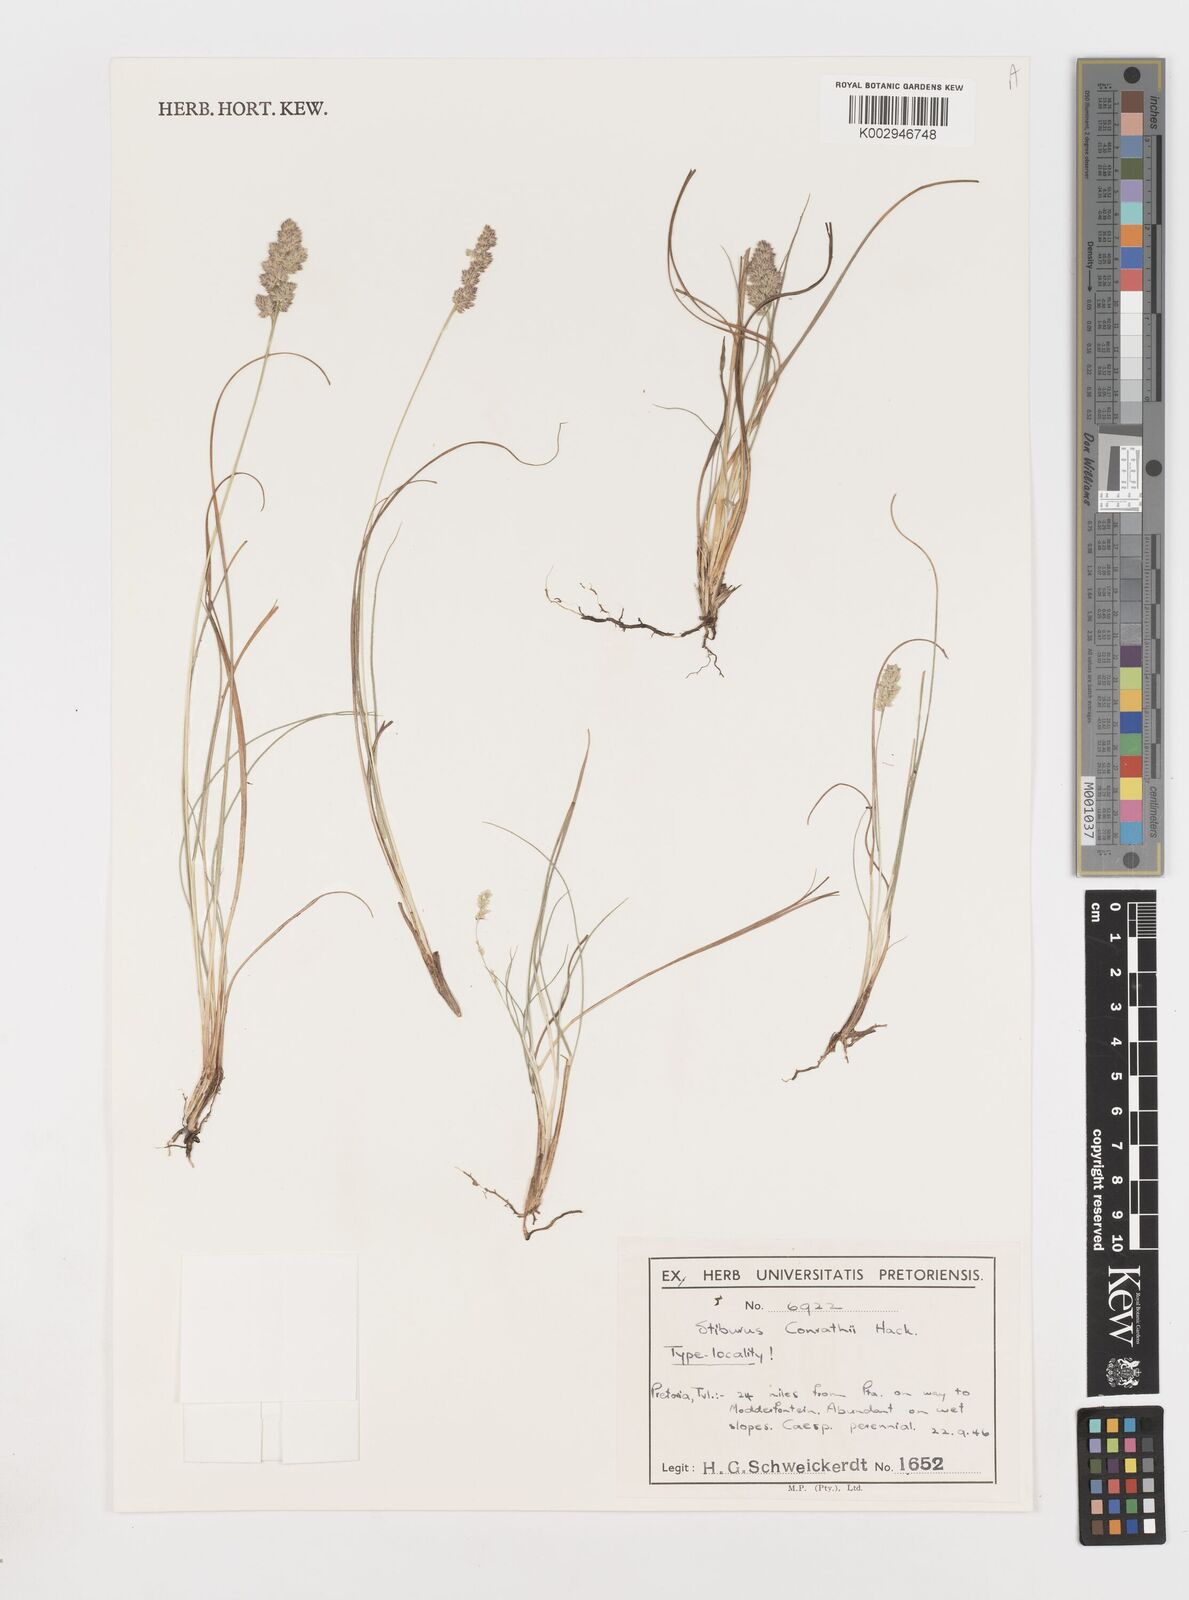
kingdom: Plantae
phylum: Tracheophyta
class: Liliopsida
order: Poales
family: Poaceae
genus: Stiburus
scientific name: Stiburus conrathii
